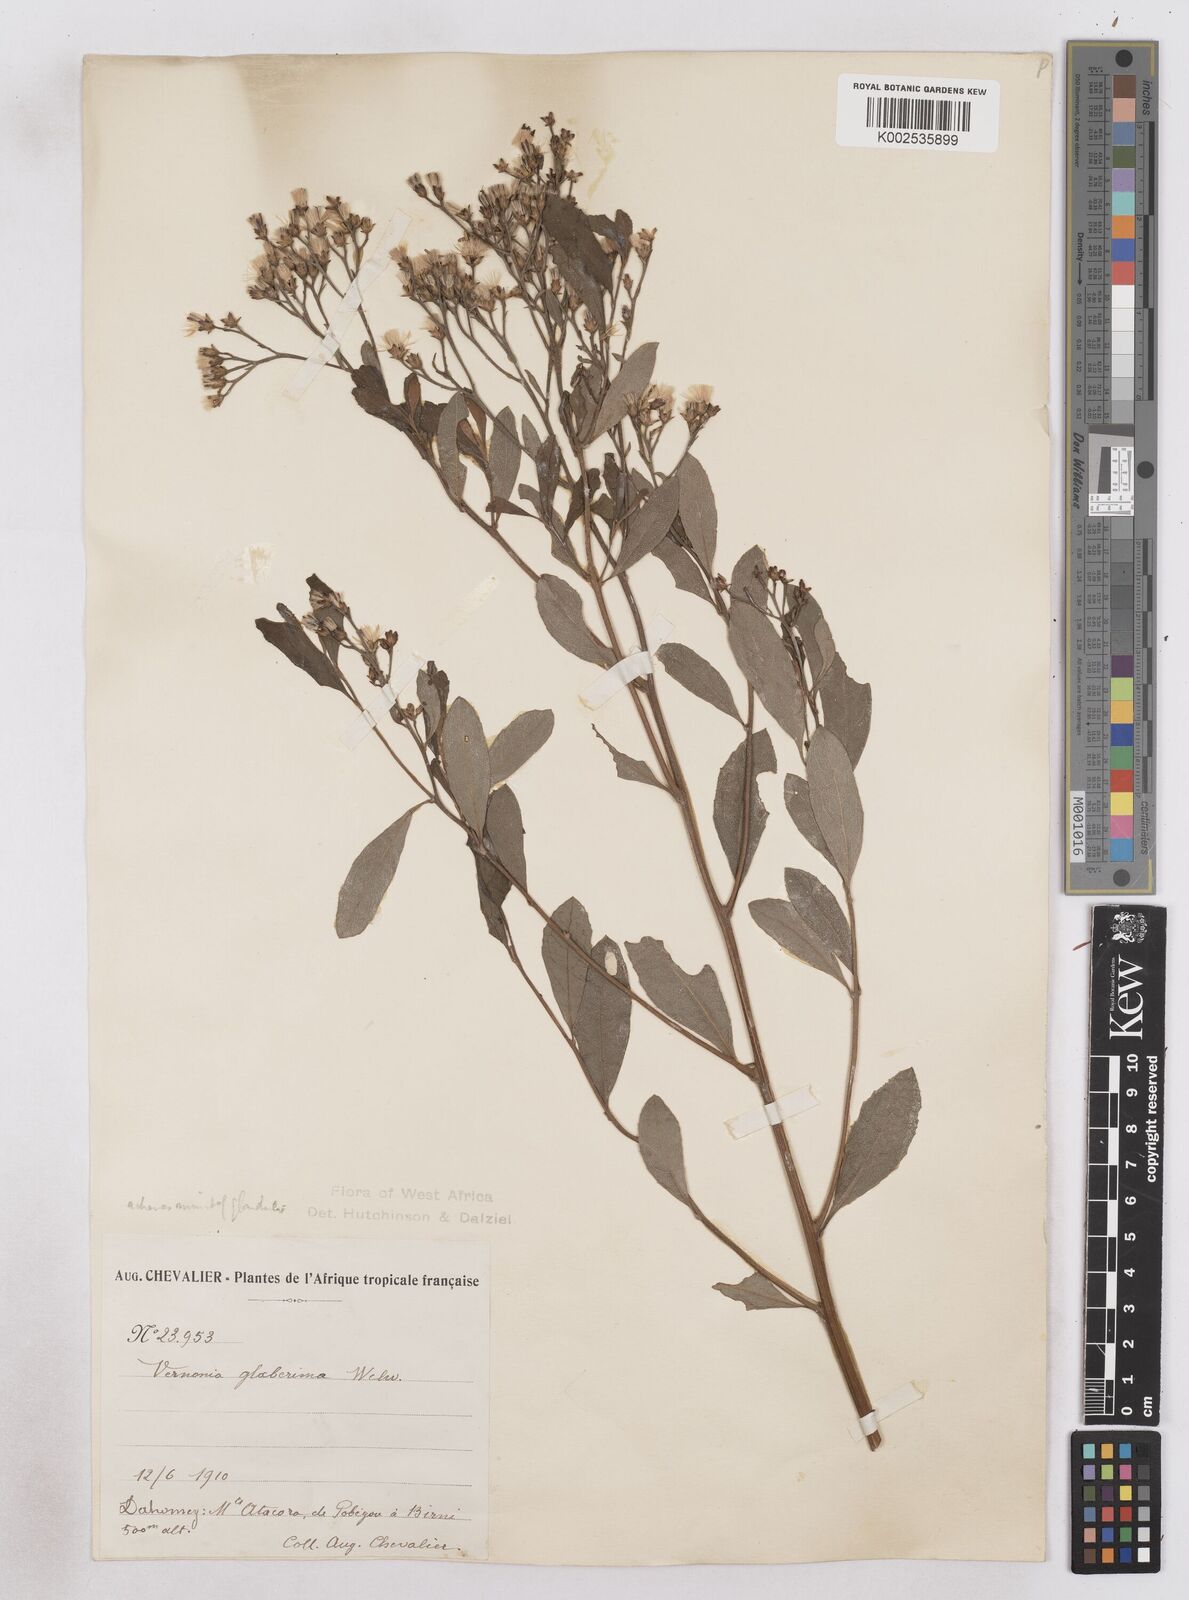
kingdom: Plantae
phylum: Tracheophyta
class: Magnoliopsida
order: Asterales
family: Asteraceae
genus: Gymnanthemum
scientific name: Gymnanthemum glaberrimum
